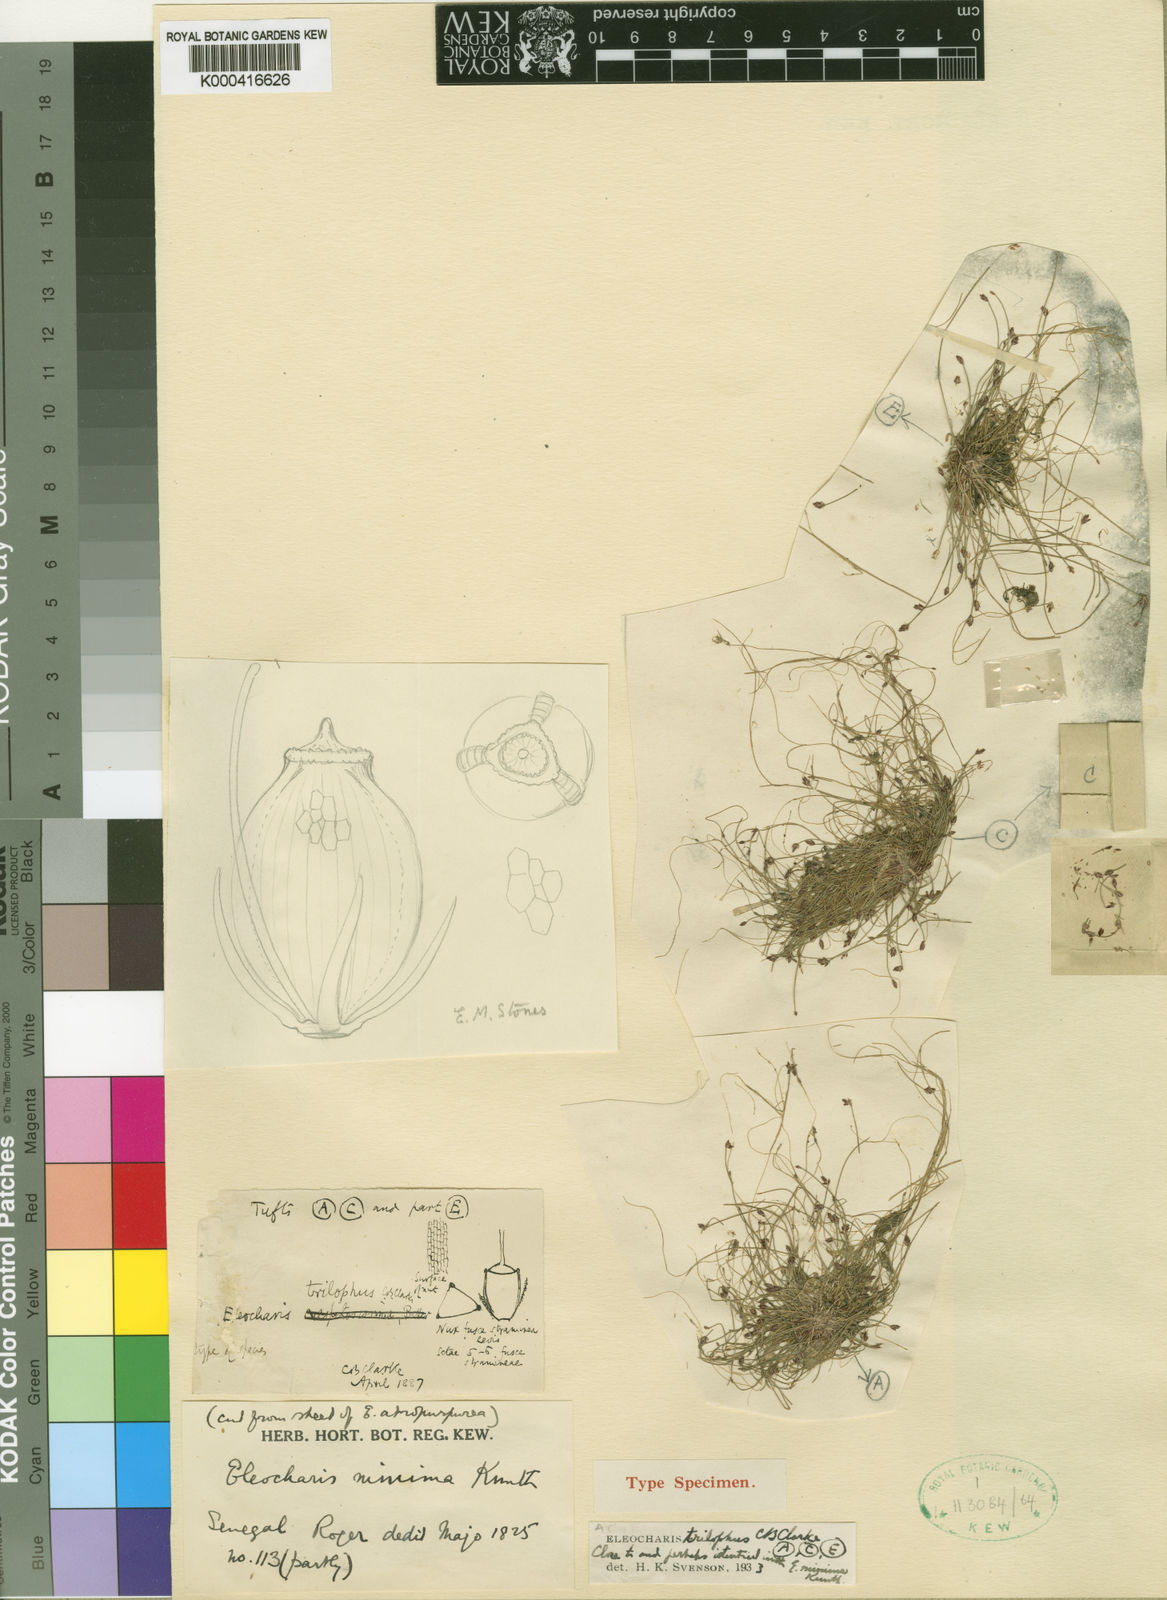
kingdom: Plantae
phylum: Tracheophyta
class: Liliopsida
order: Poales
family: Cyperaceae
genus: Eleocharis
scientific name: Eleocharis trilophus
